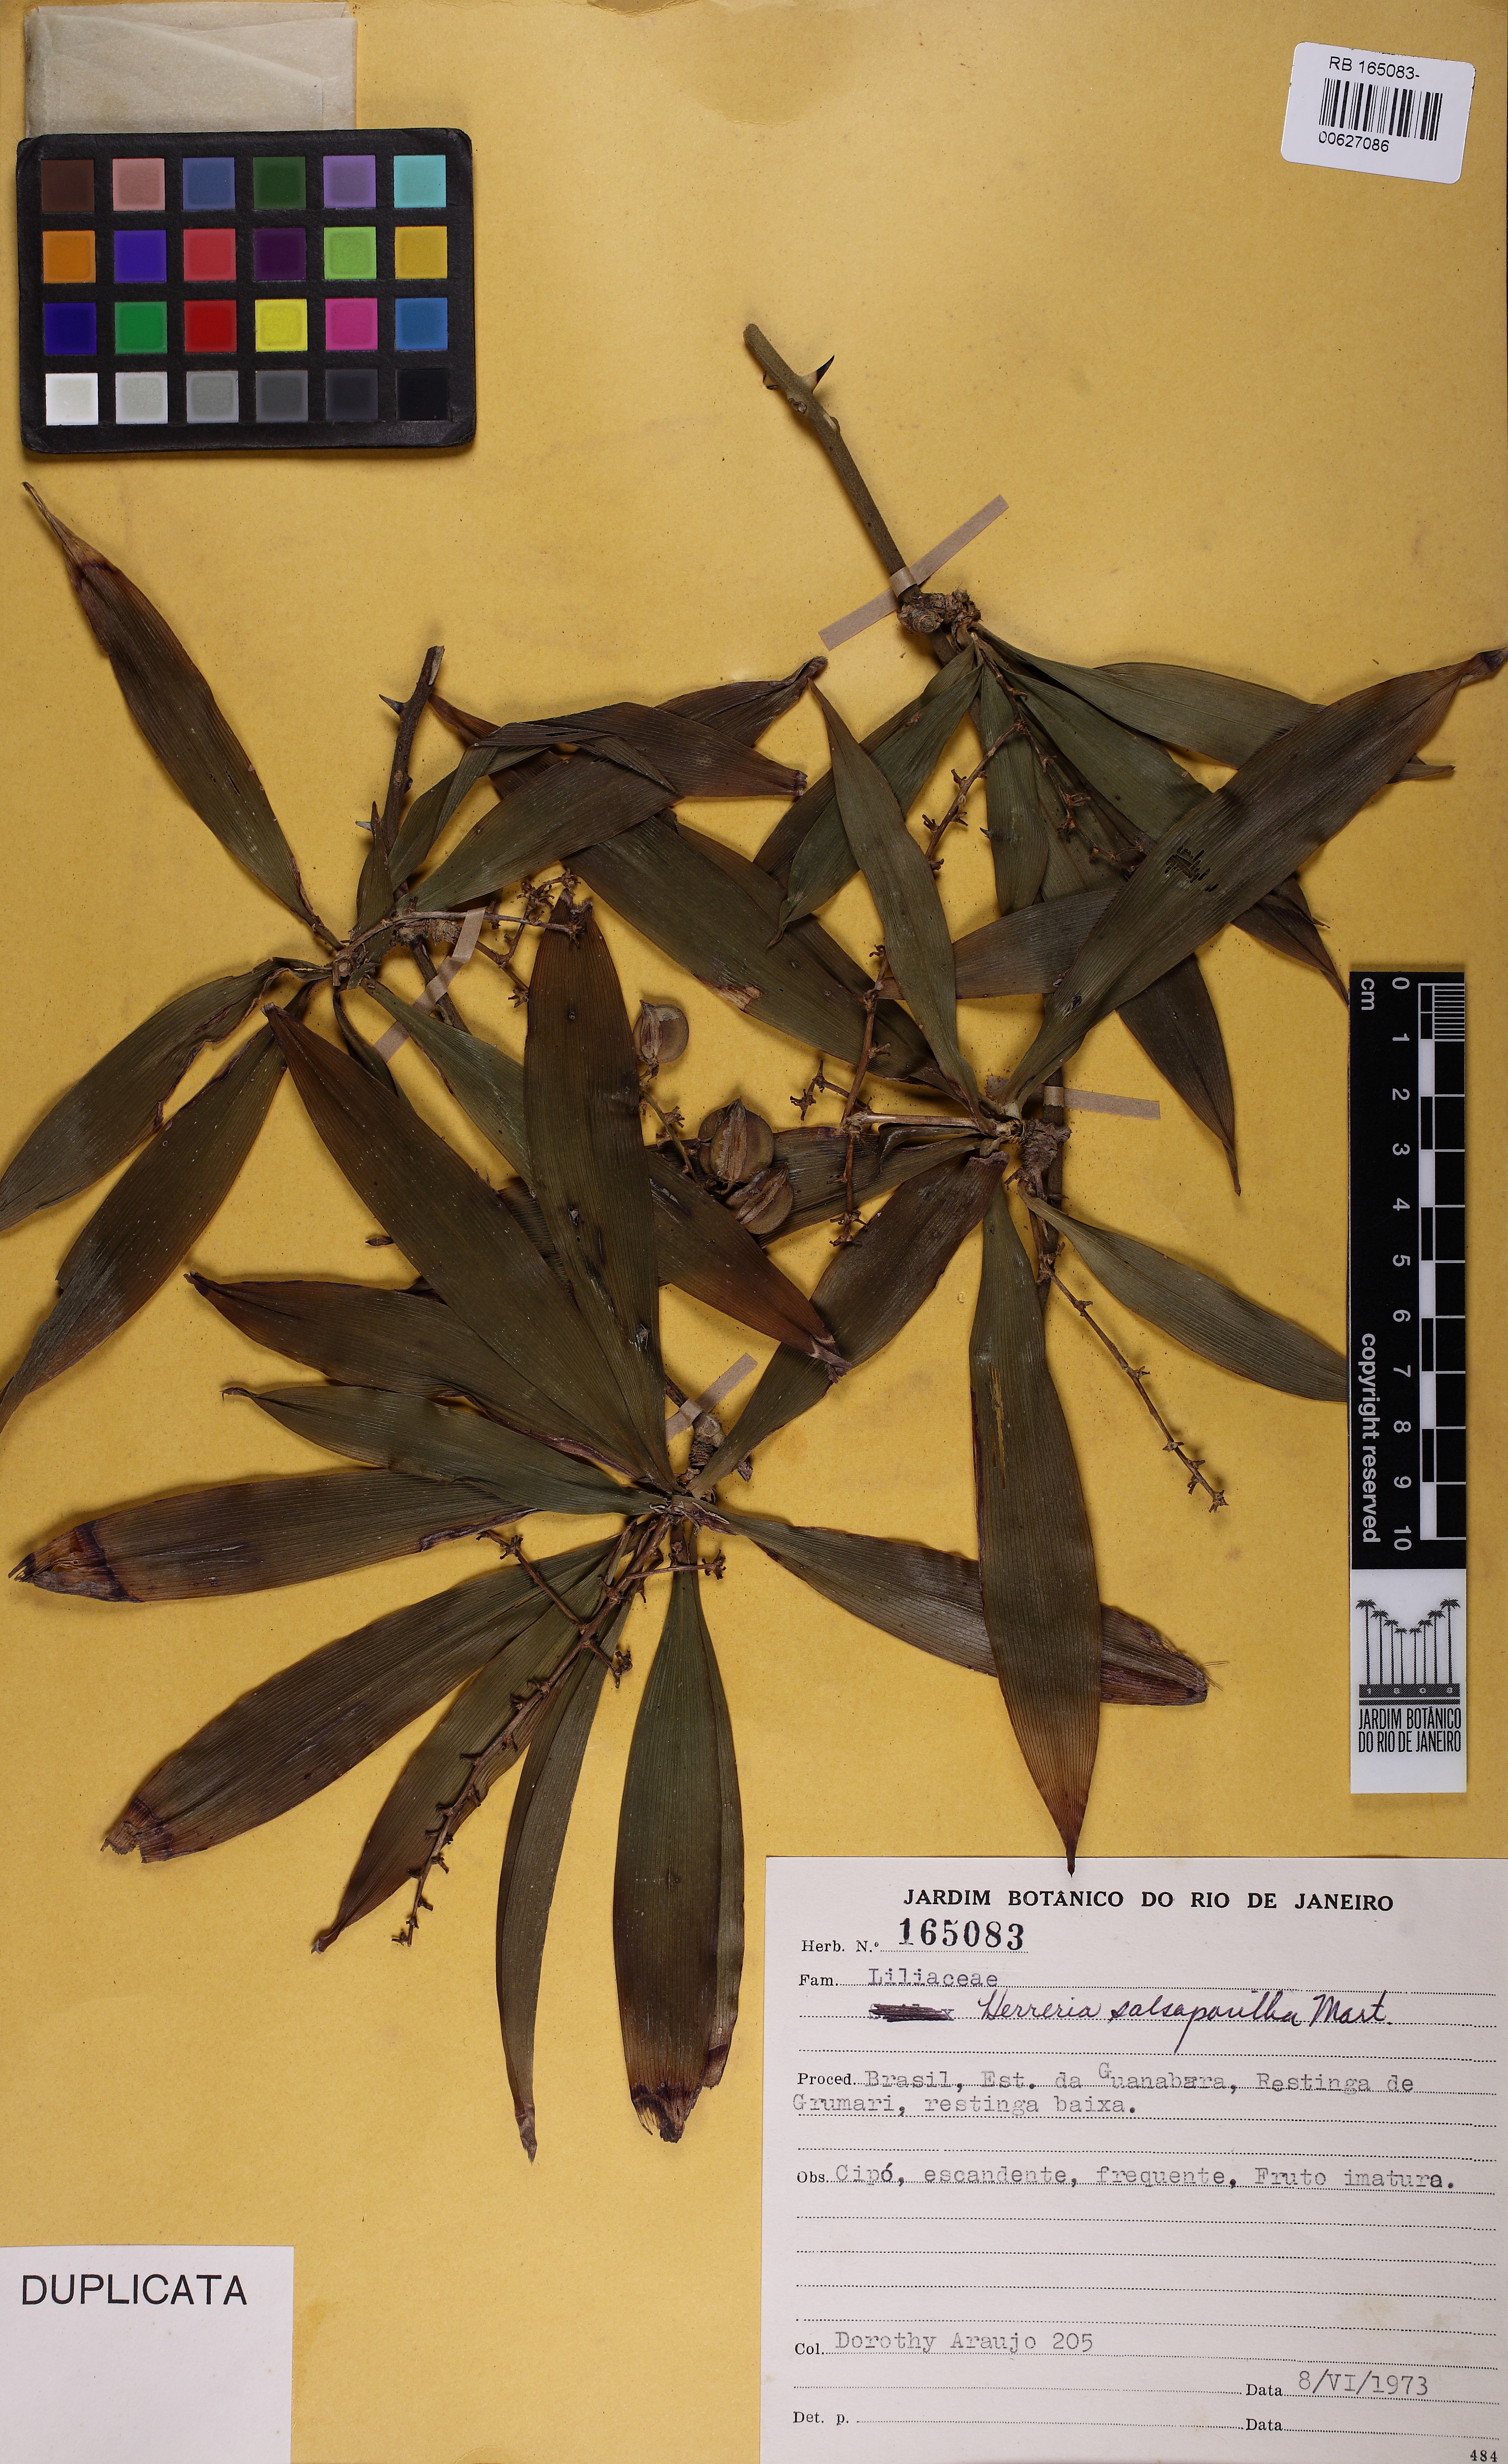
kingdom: Plantae
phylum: Tracheophyta
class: Liliopsida
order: Asparagales
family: Asparagaceae
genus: Herreria
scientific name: Herreria salsaparilha
